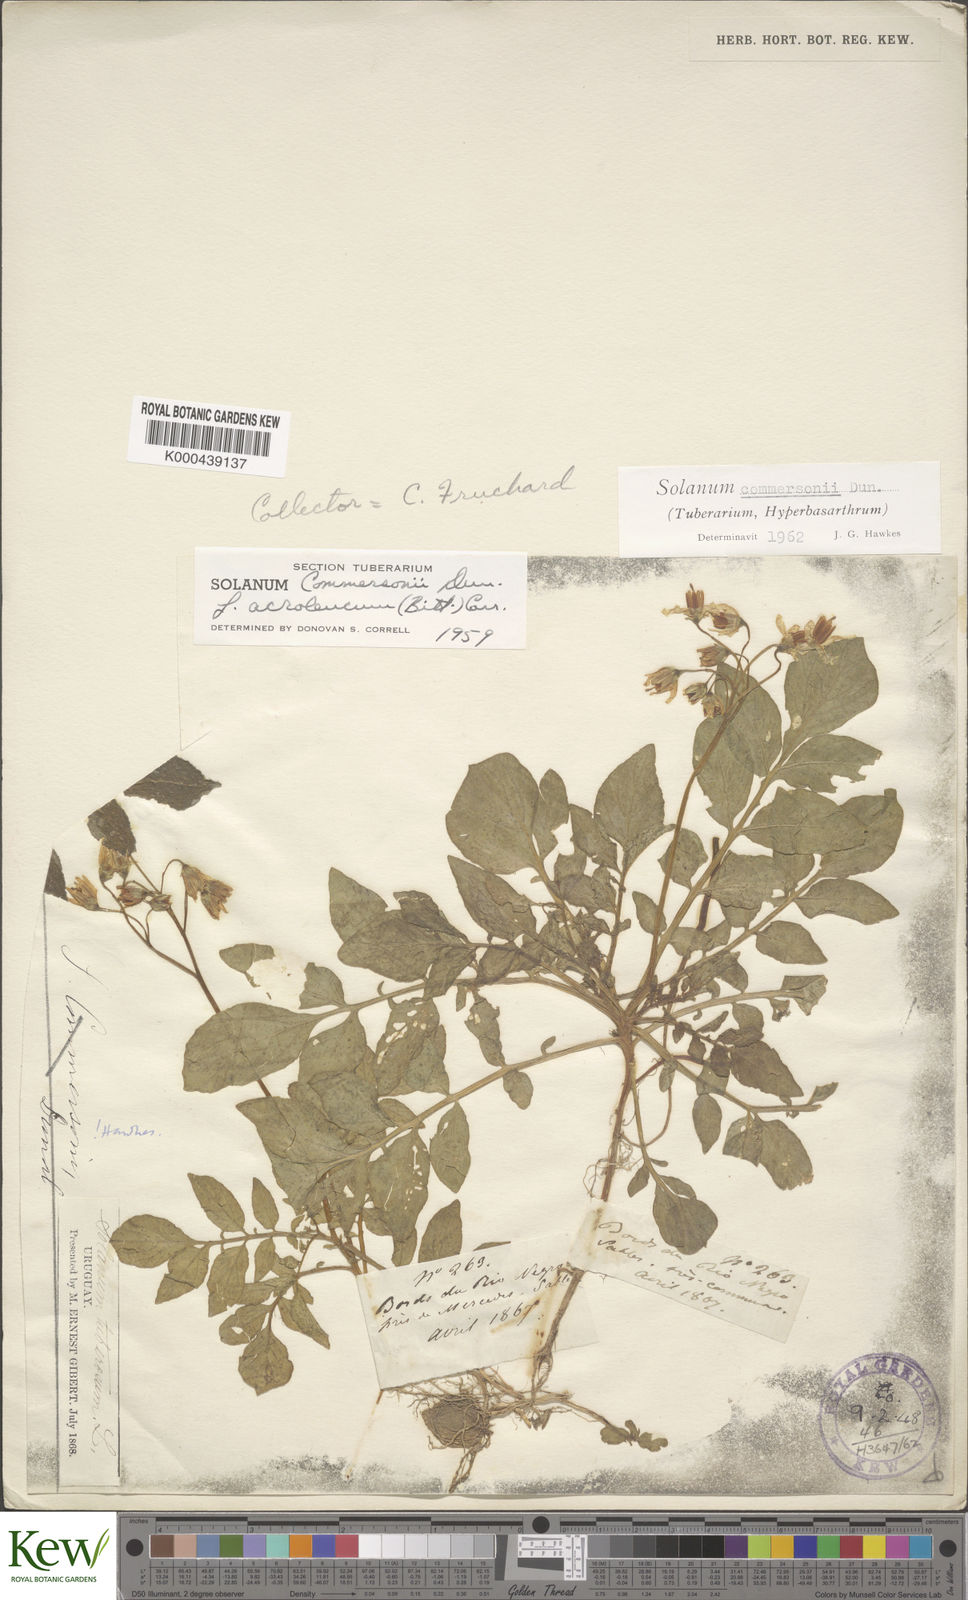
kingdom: Plantae
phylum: Tracheophyta
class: Magnoliopsida
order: Solanales
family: Solanaceae
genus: Solanum
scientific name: Solanum commersonii
